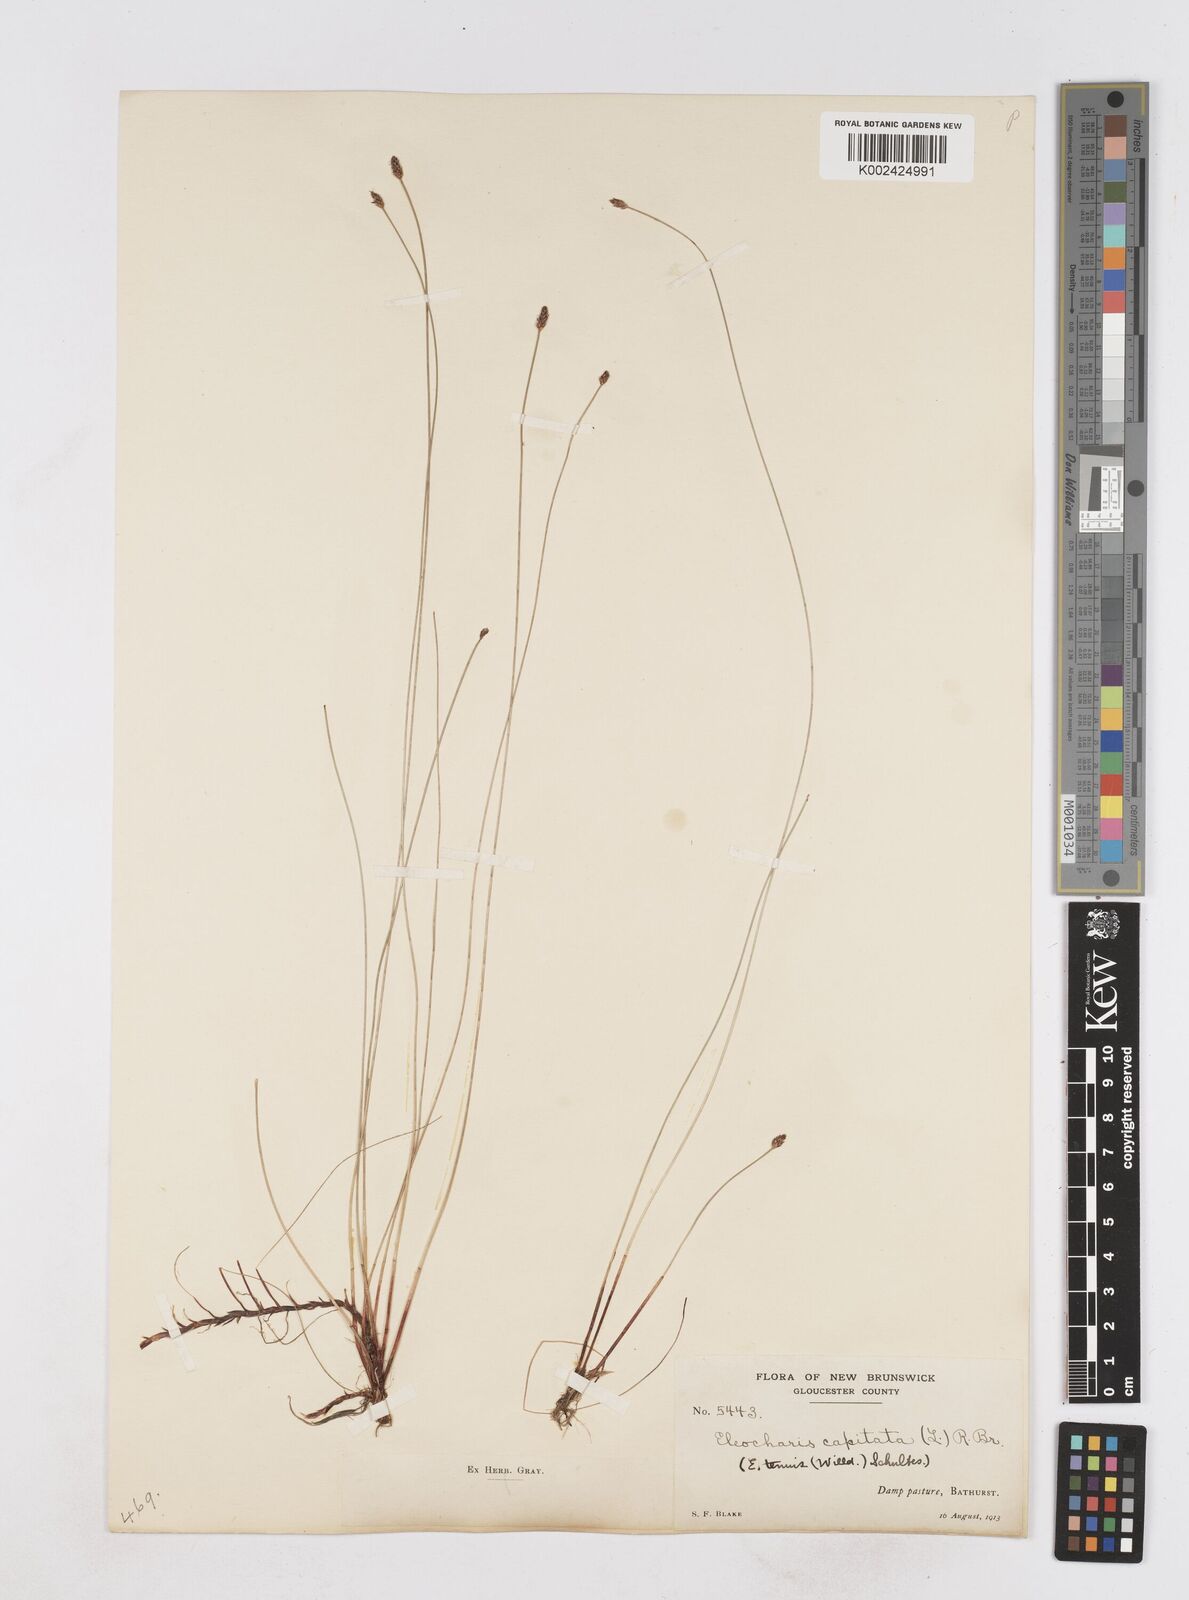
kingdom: Plantae
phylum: Tracheophyta
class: Liliopsida
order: Poales
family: Cyperaceae
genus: Eleocharis
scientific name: Eleocharis geniculata
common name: Canada spikesedge
